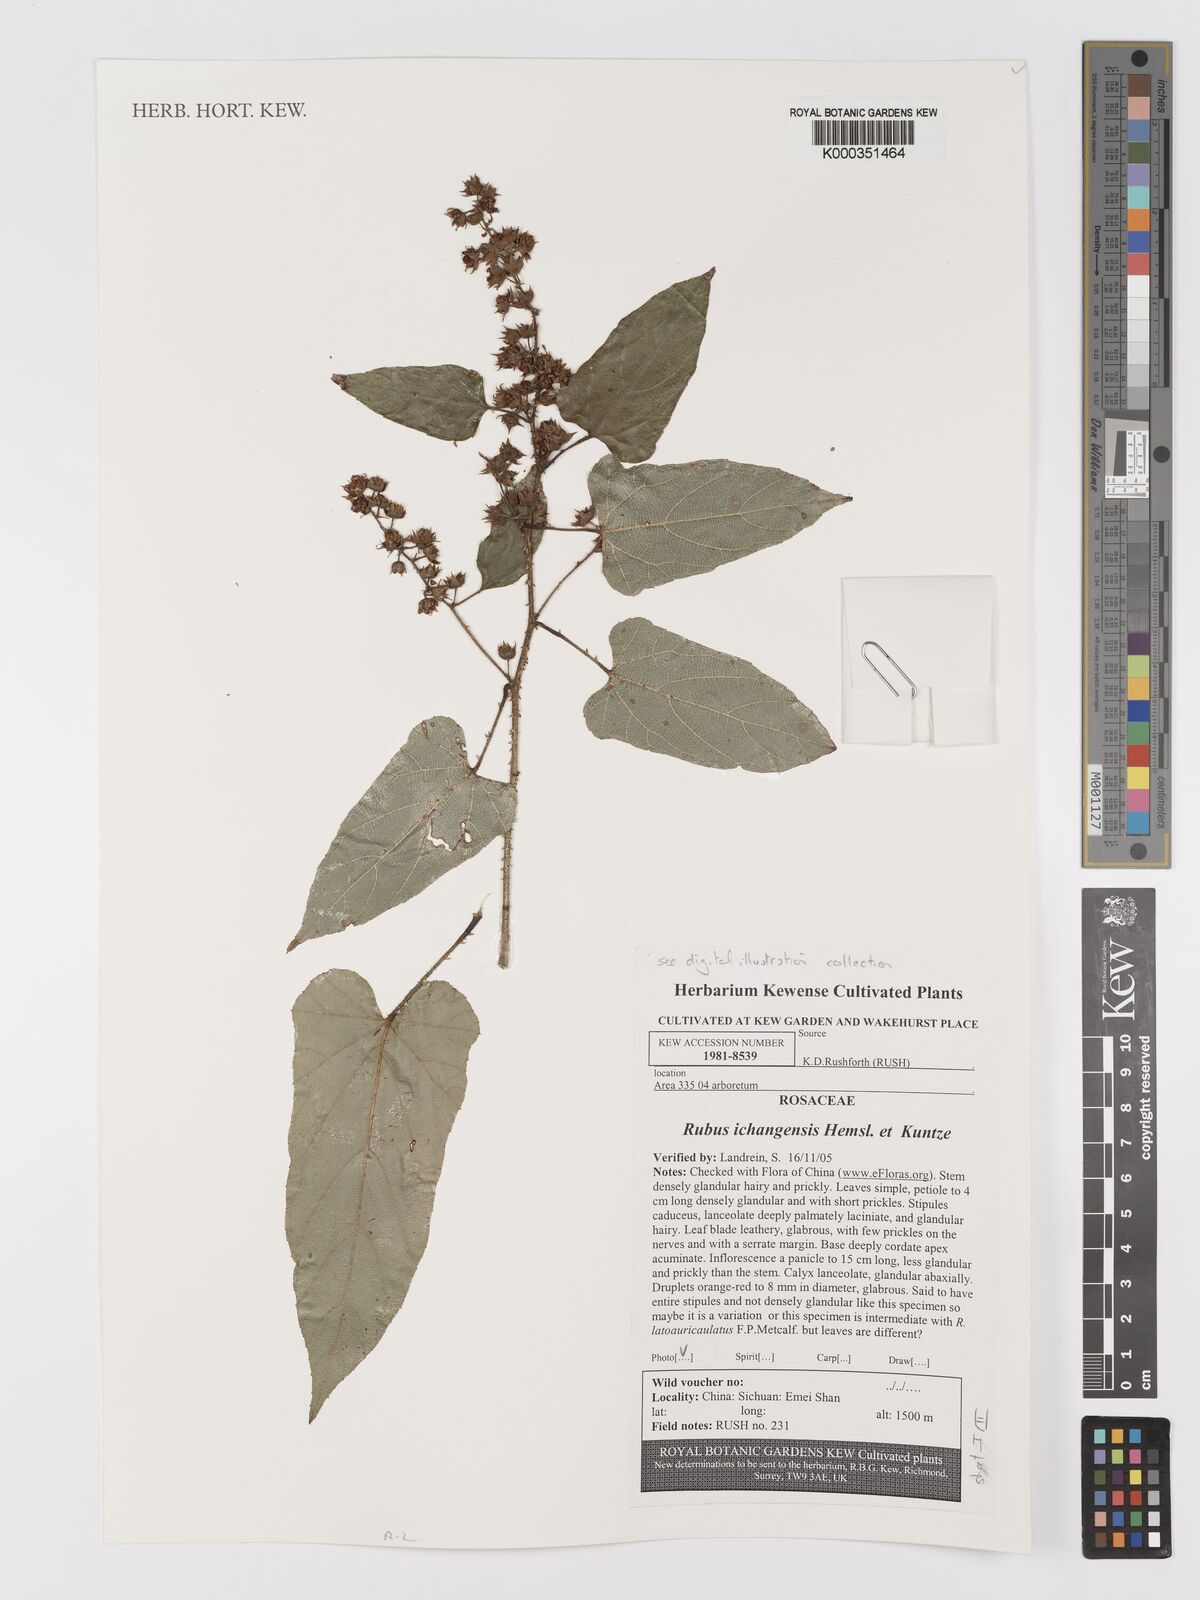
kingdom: Plantae
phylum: Tracheophyta
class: Magnoliopsida
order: Rosales
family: Rosaceae
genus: Rubus
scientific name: Rubus ichangensis
